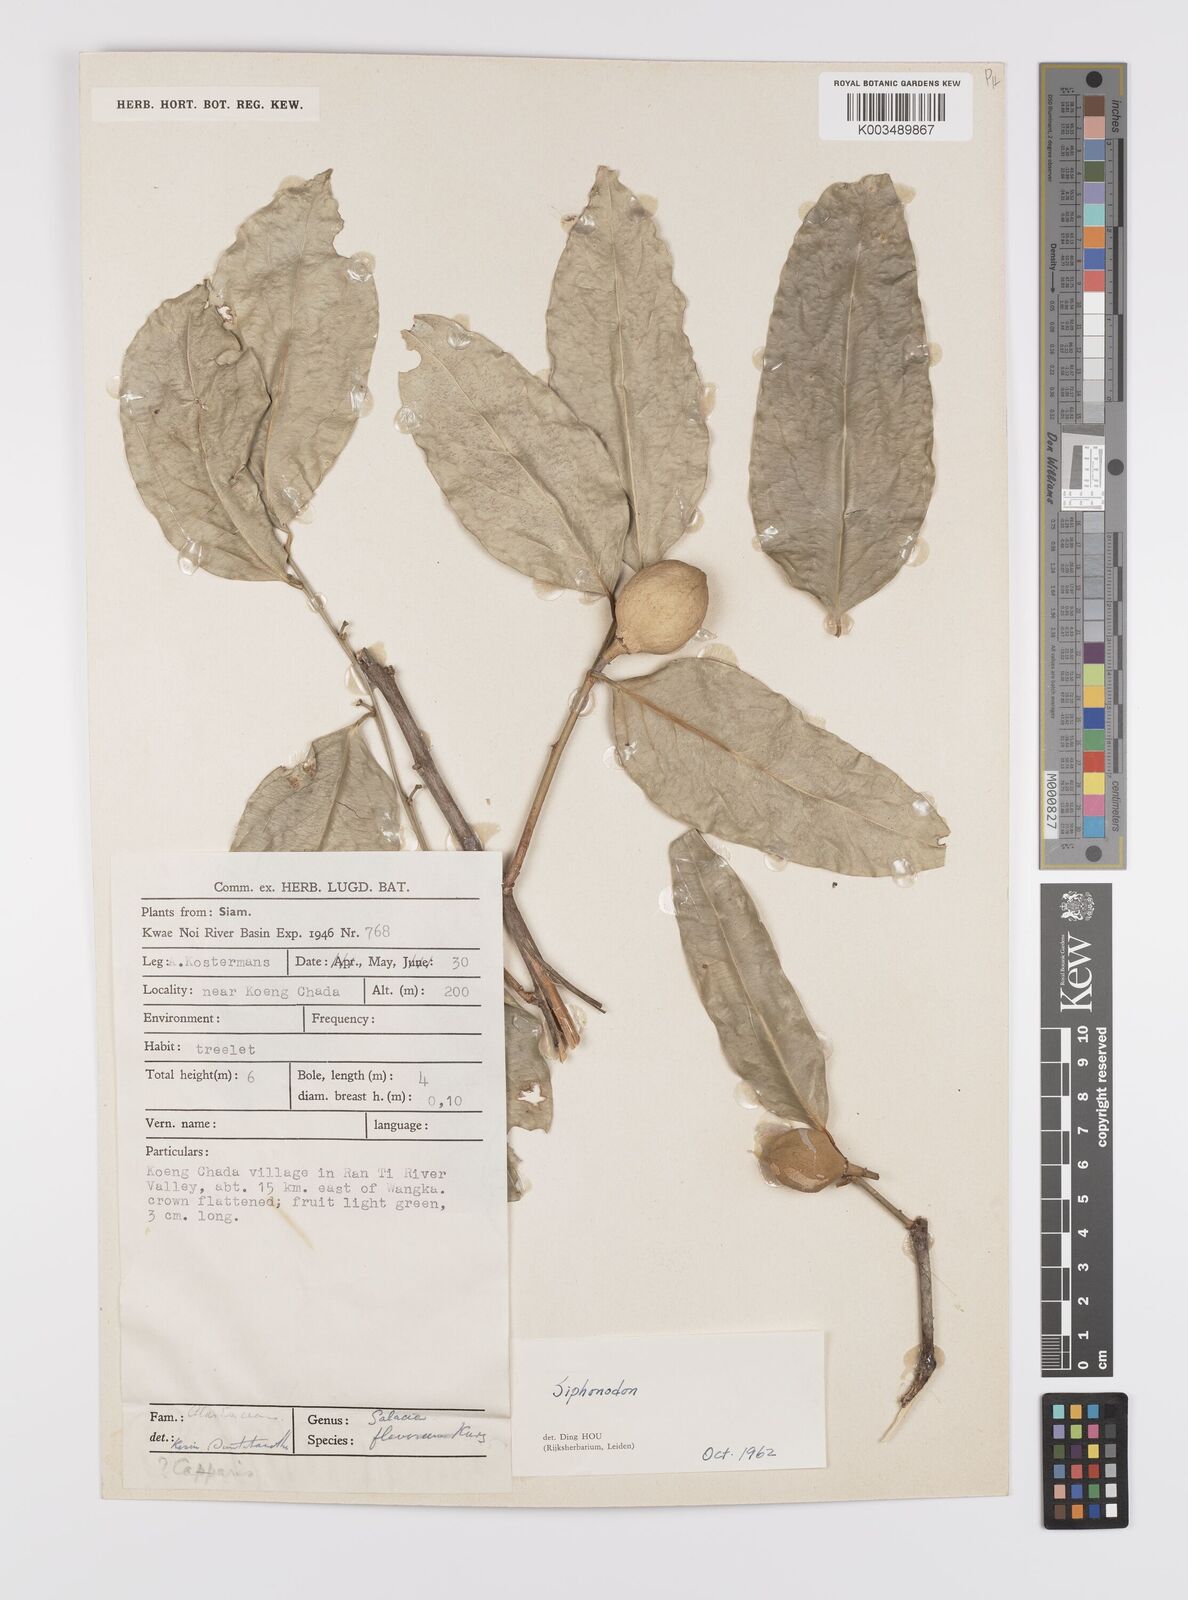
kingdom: Plantae
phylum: Tracheophyta
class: Magnoliopsida
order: Celastrales
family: Celastraceae
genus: Siphonodon
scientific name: Siphonodon
